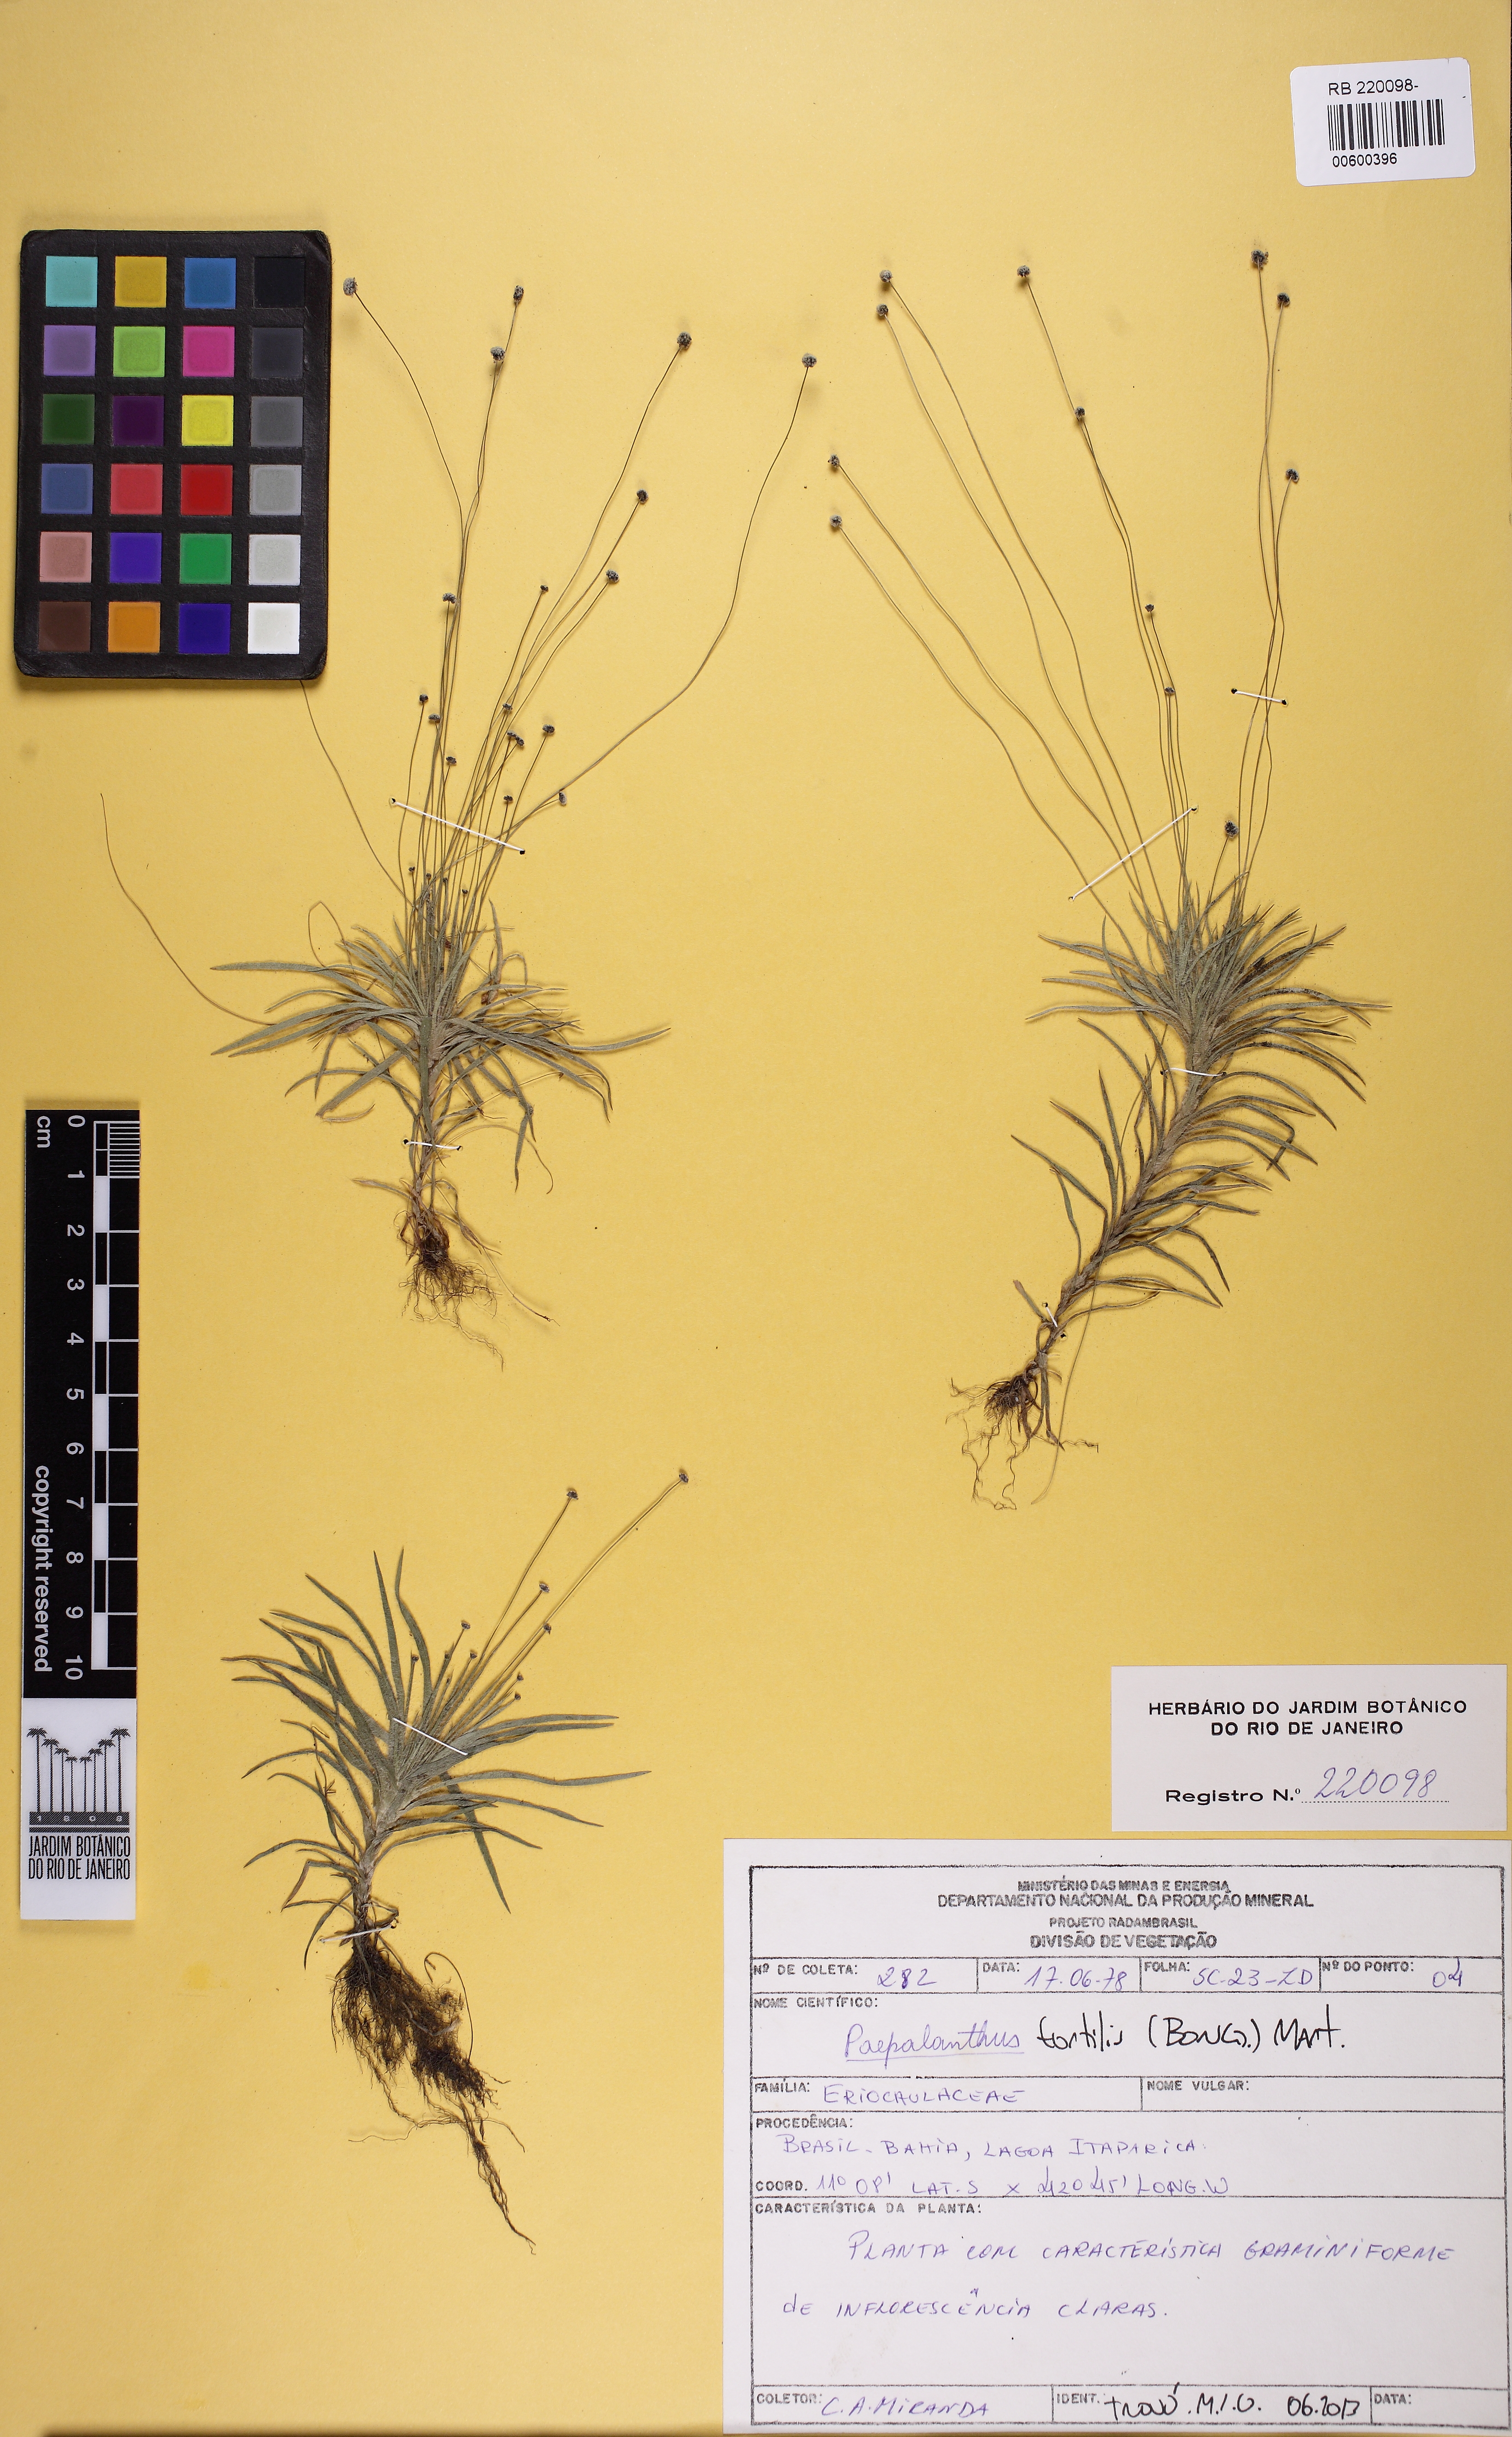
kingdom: Plantae
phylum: Tracheophyta
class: Liliopsida
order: Poales
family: Eriocaulaceae
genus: Paepalanthus
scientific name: Paepalanthus tortilis
